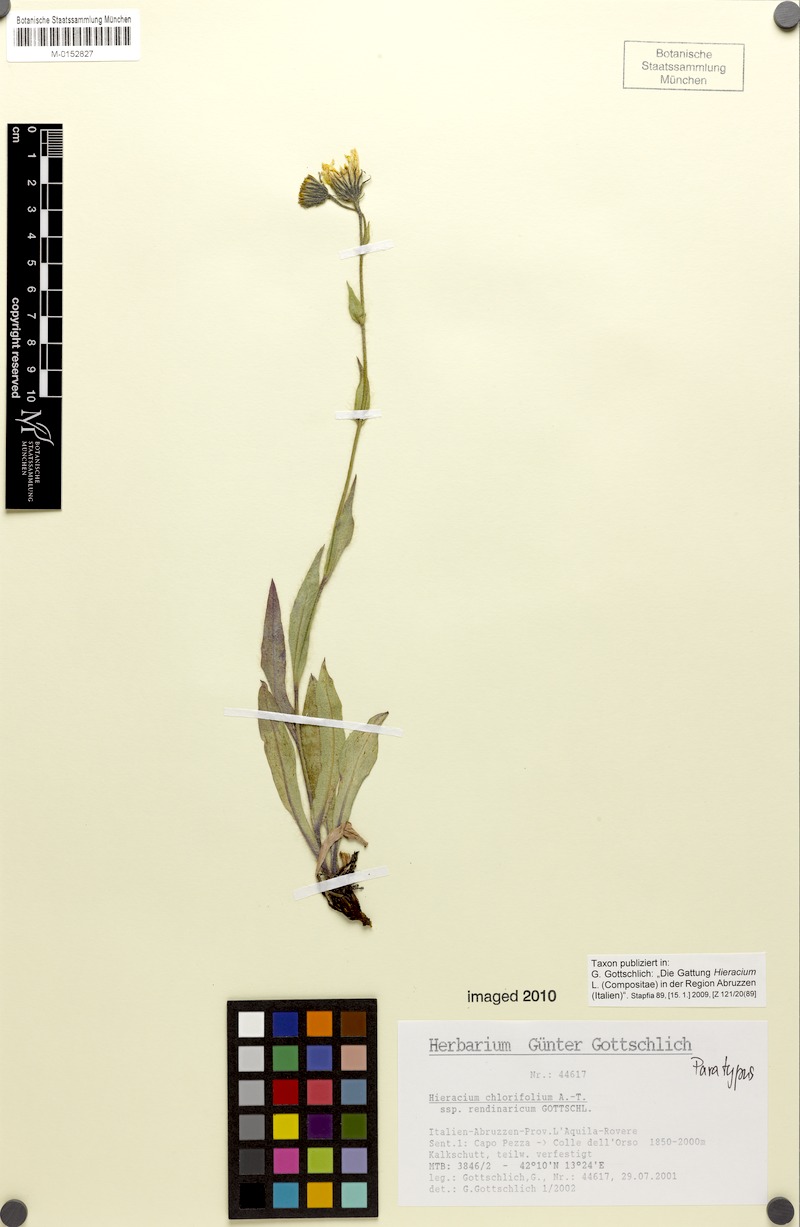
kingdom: Plantae
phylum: Tracheophyta
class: Magnoliopsida
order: Asterales
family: Asteraceae
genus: Hieracium
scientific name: Hieracium chlorifolium
